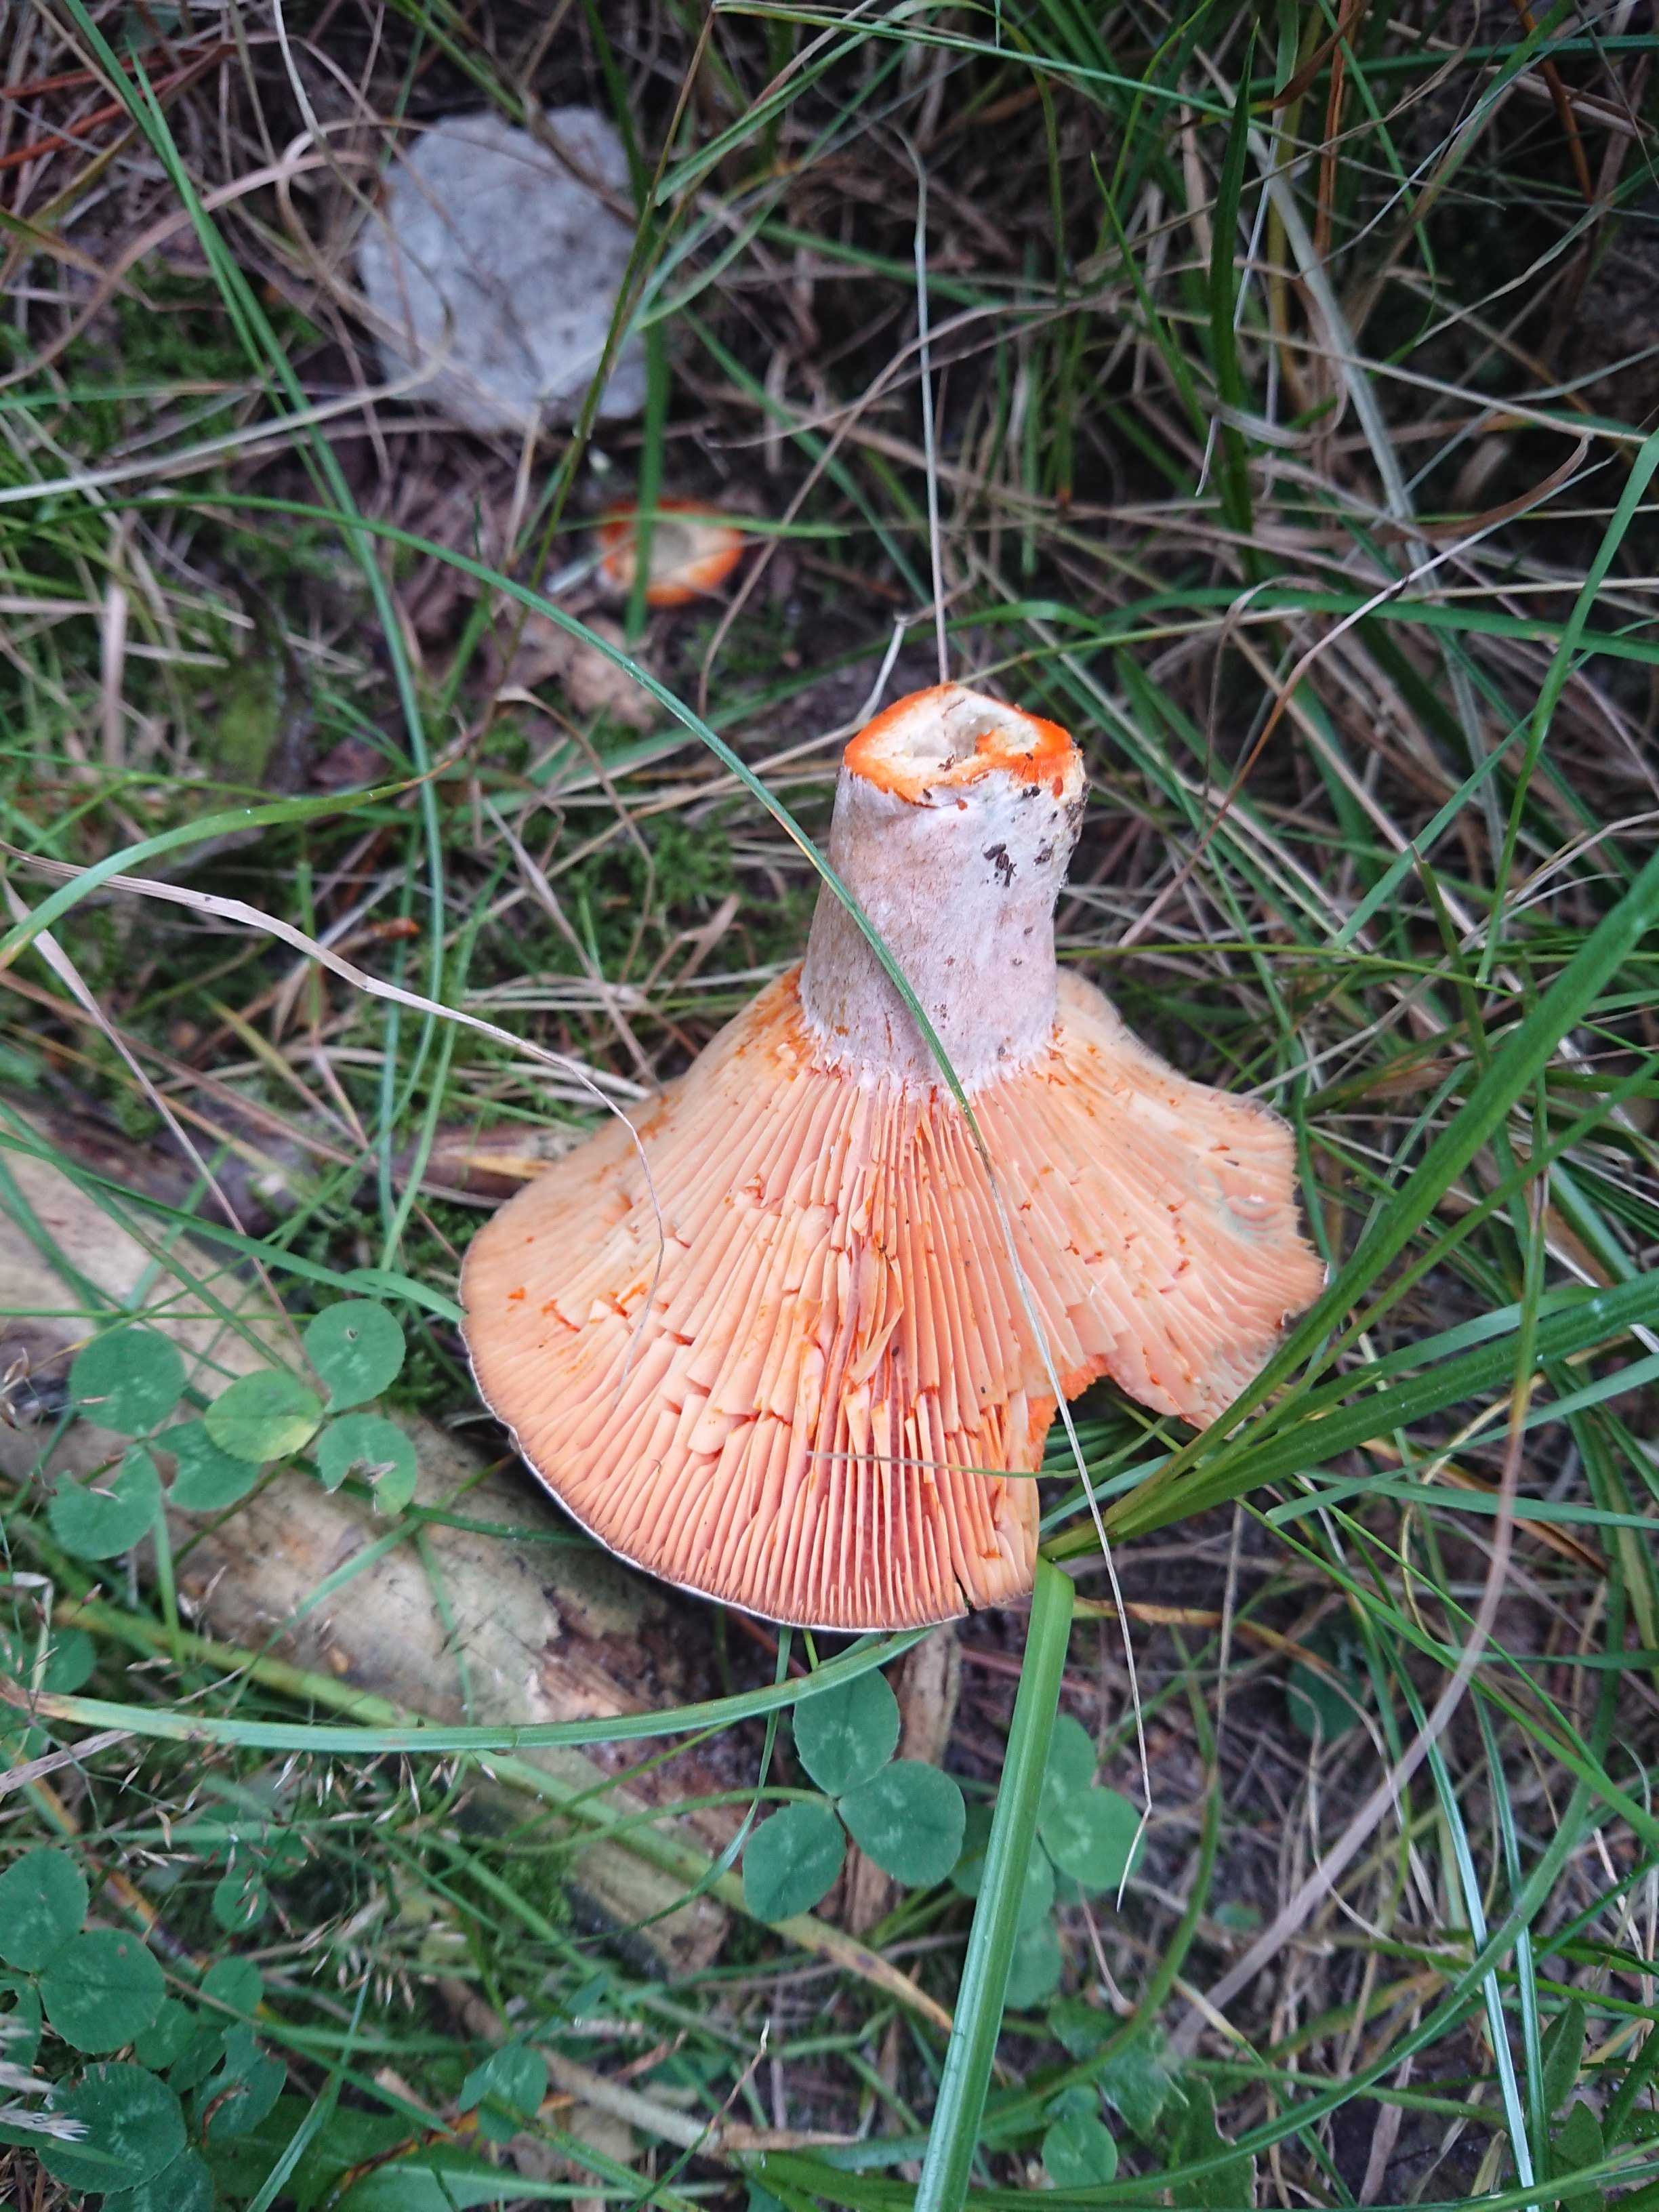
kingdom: Fungi
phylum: Basidiomycota
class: Agaricomycetes
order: Russulales
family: Russulaceae
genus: Lactarius
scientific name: Lactarius
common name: mælkehat
